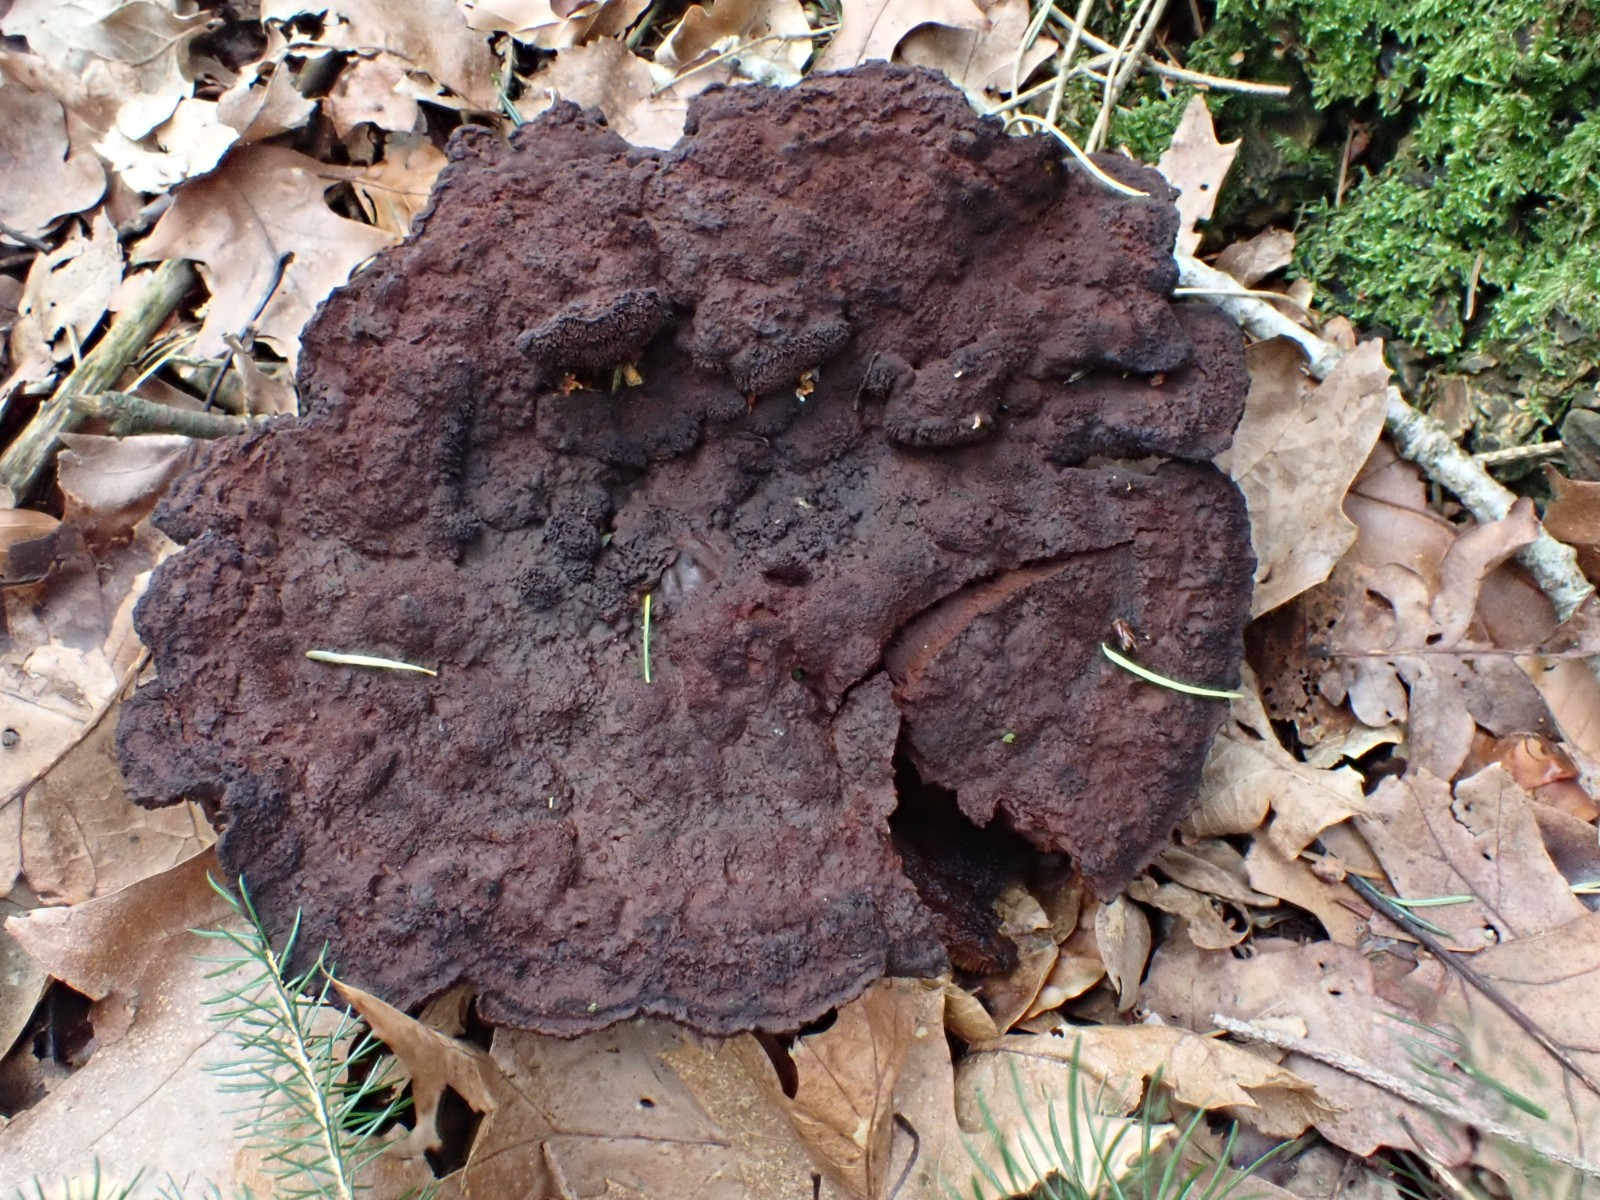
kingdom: Fungi
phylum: Basidiomycota
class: Agaricomycetes
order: Polyporales
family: Laetiporaceae
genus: Phaeolus
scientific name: Phaeolus schweinitzii
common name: brunporesvamp
